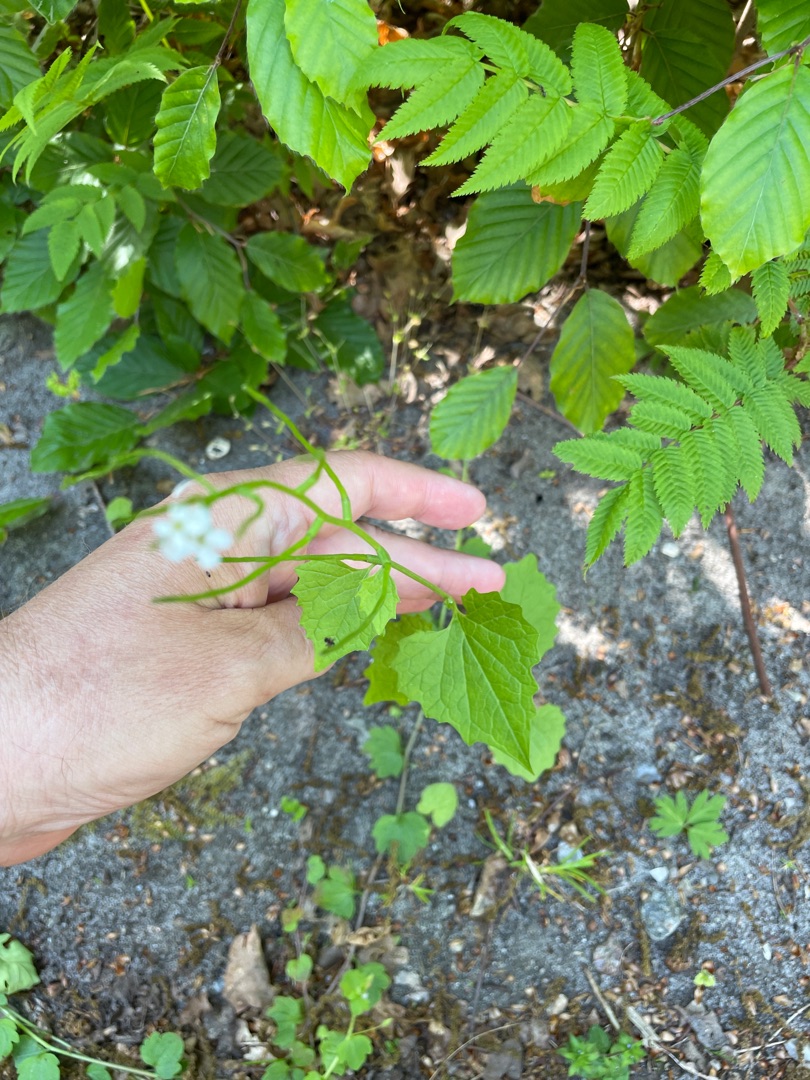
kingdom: Plantae
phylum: Tracheophyta
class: Magnoliopsida
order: Brassicales
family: Brassicaceae
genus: Alliaria
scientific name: Alliaria petiolata
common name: Løgkarse
